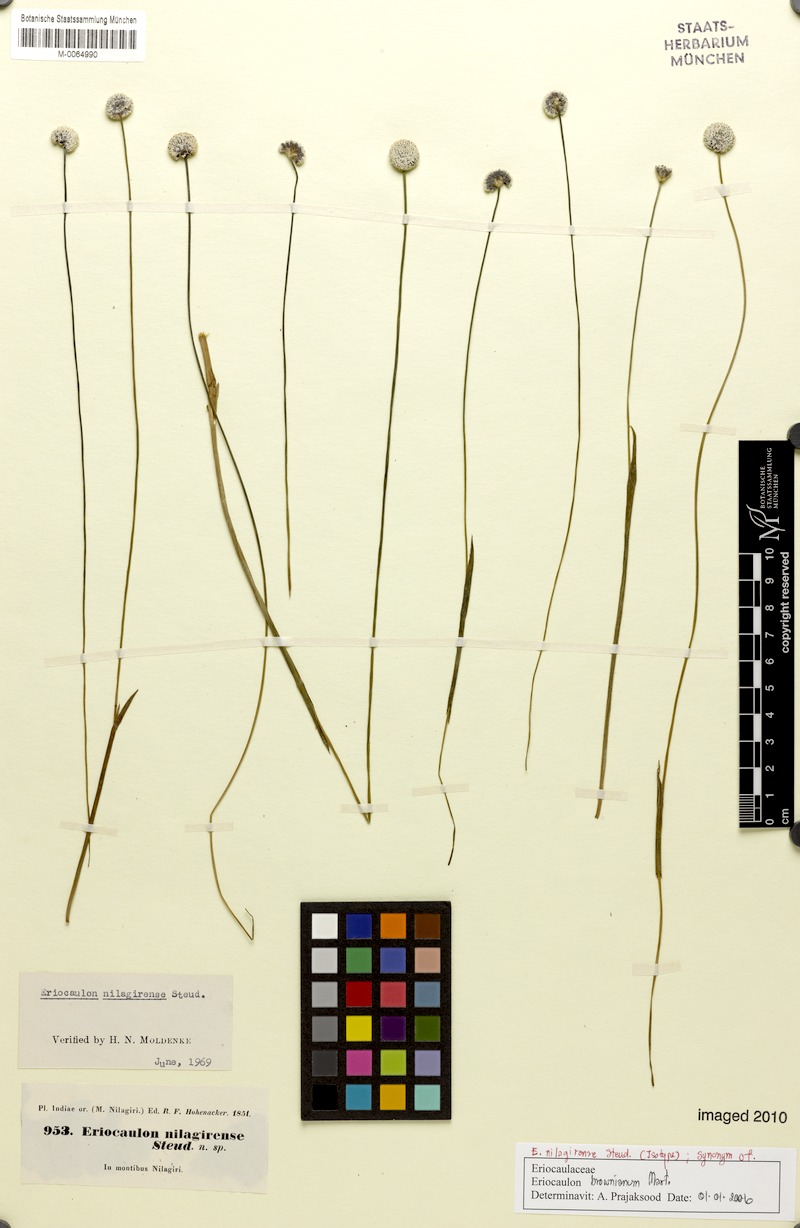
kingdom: Plantae
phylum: Tracheophyta
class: Liliopsida
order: Poales
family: Eriocaulaceae
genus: Eriocaulon
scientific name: Eriocaulon brownianum
